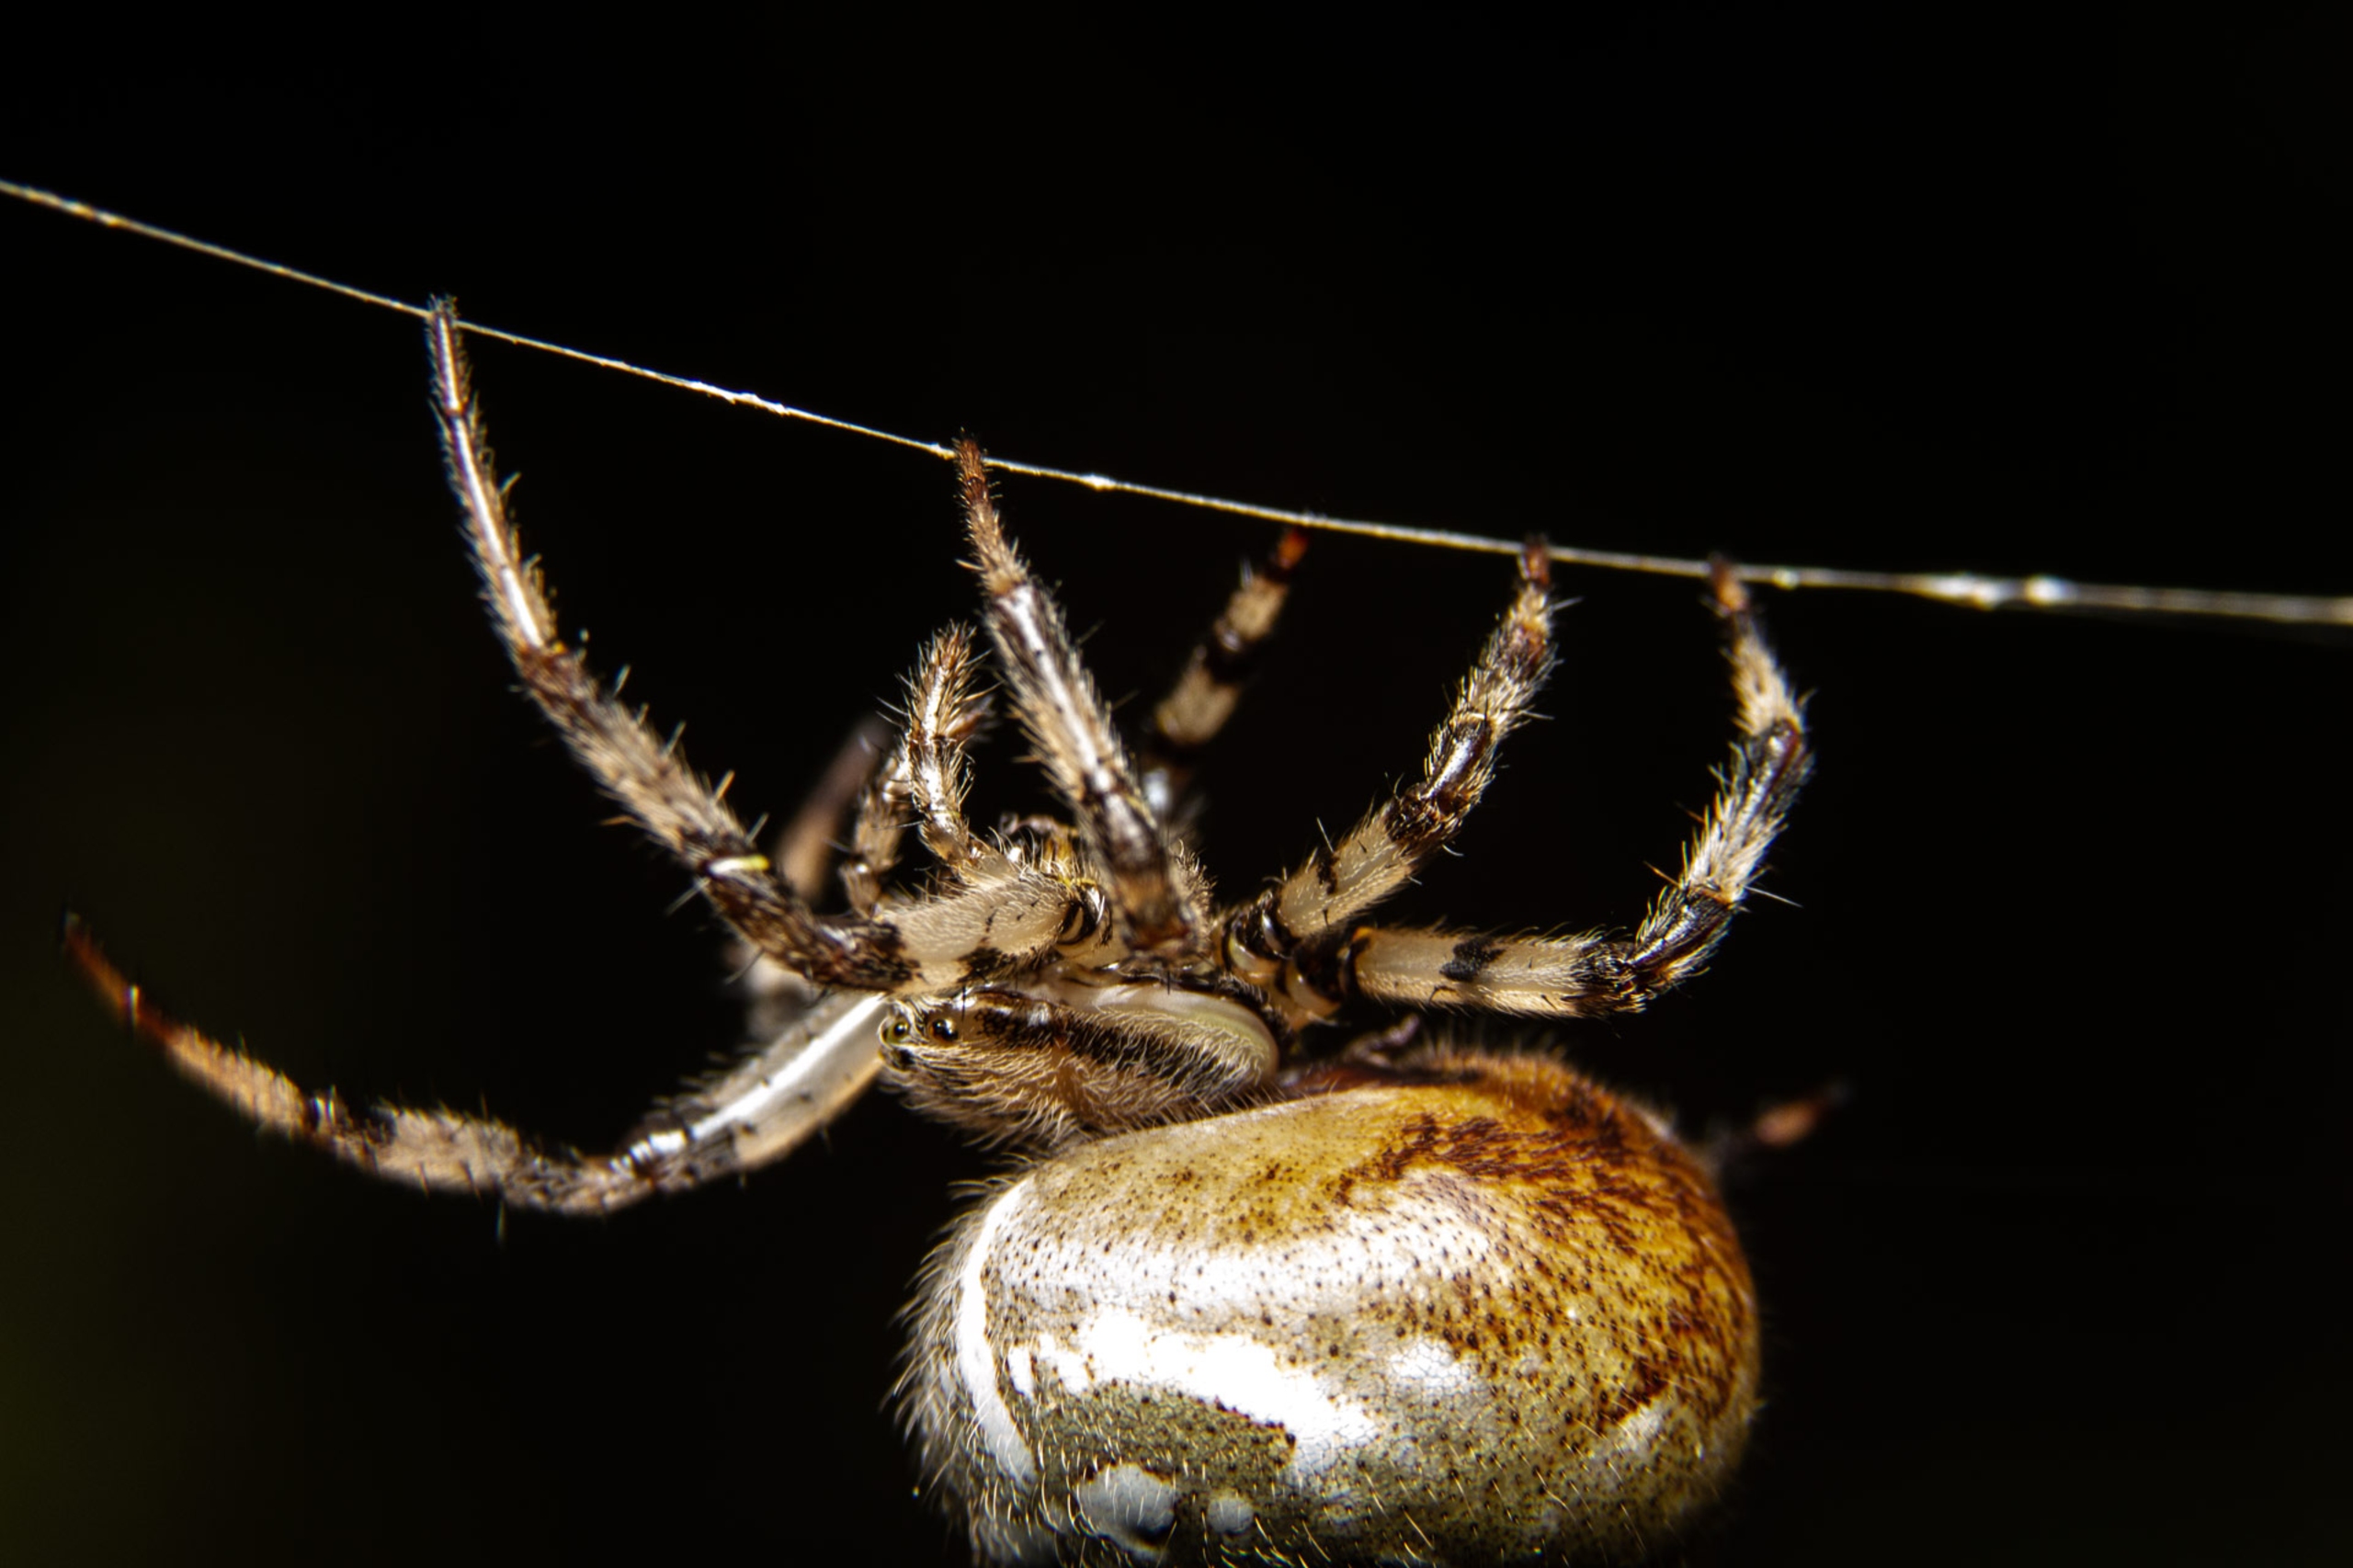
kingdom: Animalia
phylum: Arthropoda
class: Arachnida
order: Araneae
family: Araneidae
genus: Araneus
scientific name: Araneus quadratus
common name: Kvadratedderkop
